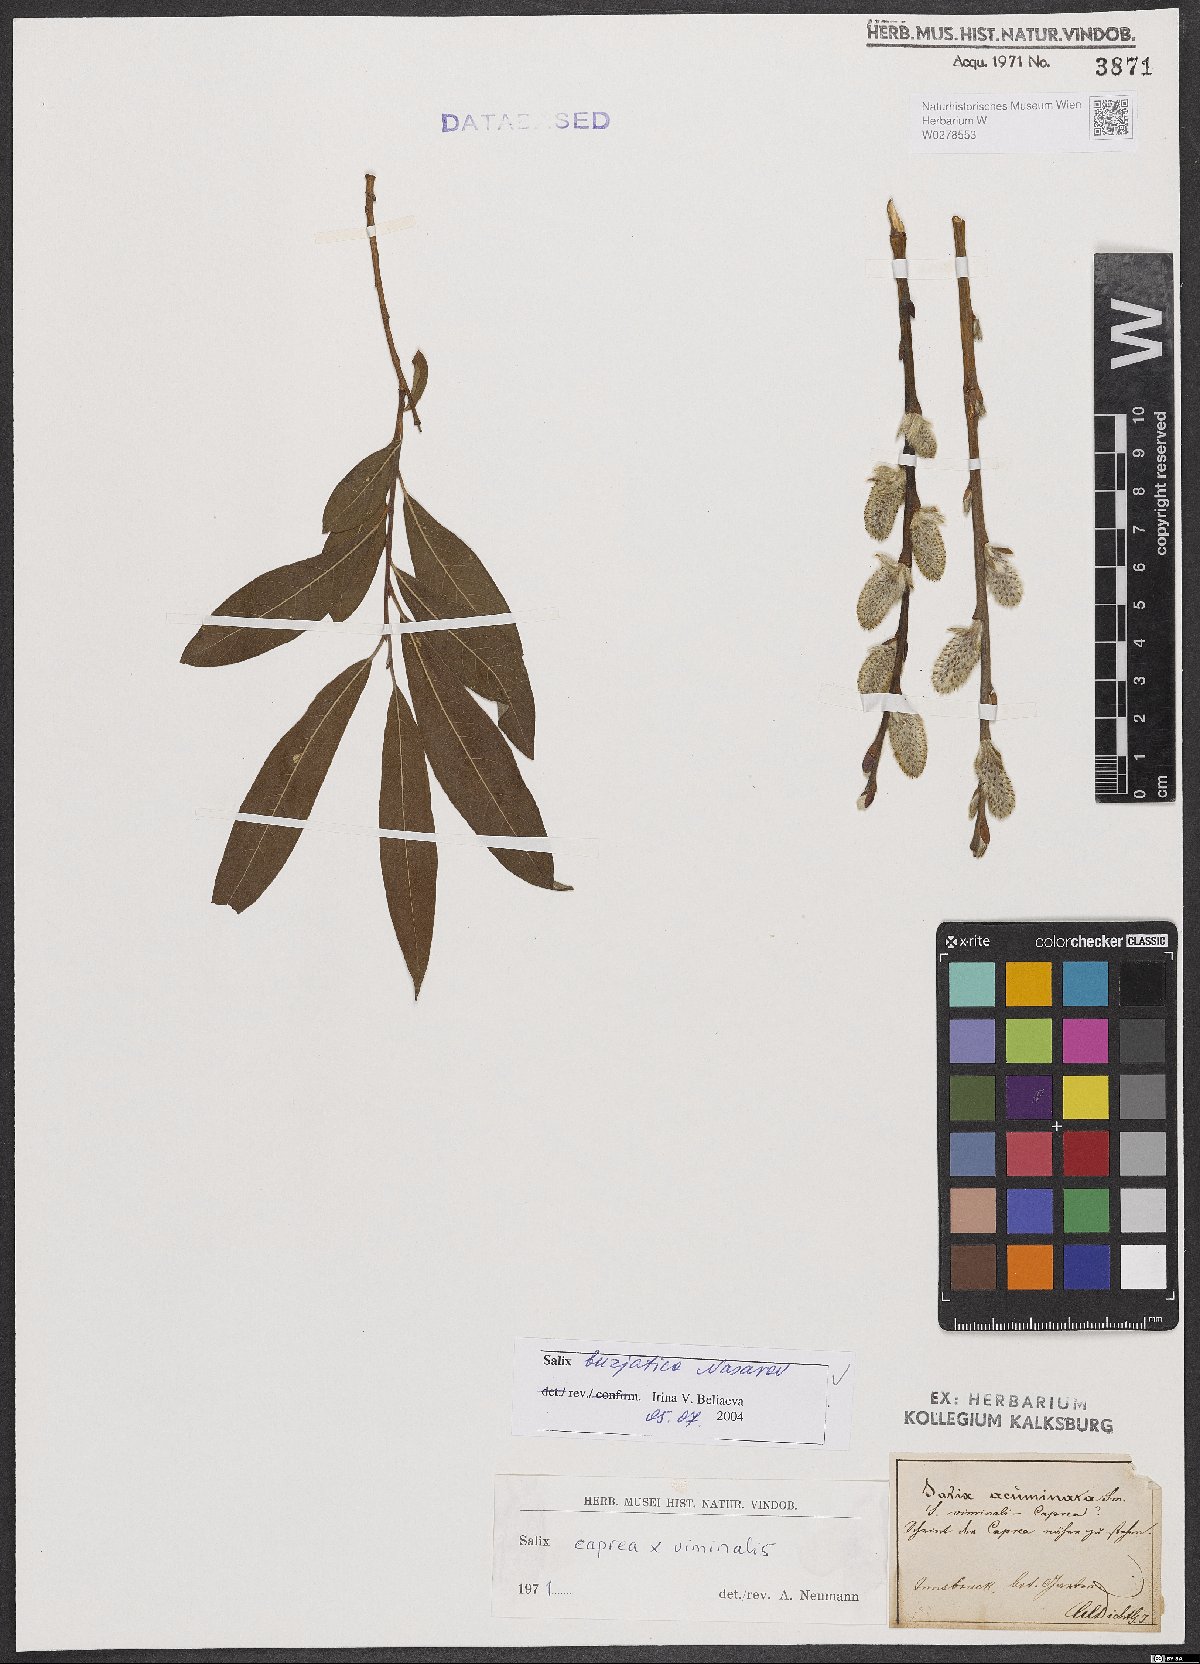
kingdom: Plantae
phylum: Tracheophyta
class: Magnoliopsida
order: Malpighiales
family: Salicaceae
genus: Salix
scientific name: Salix gmelinii
